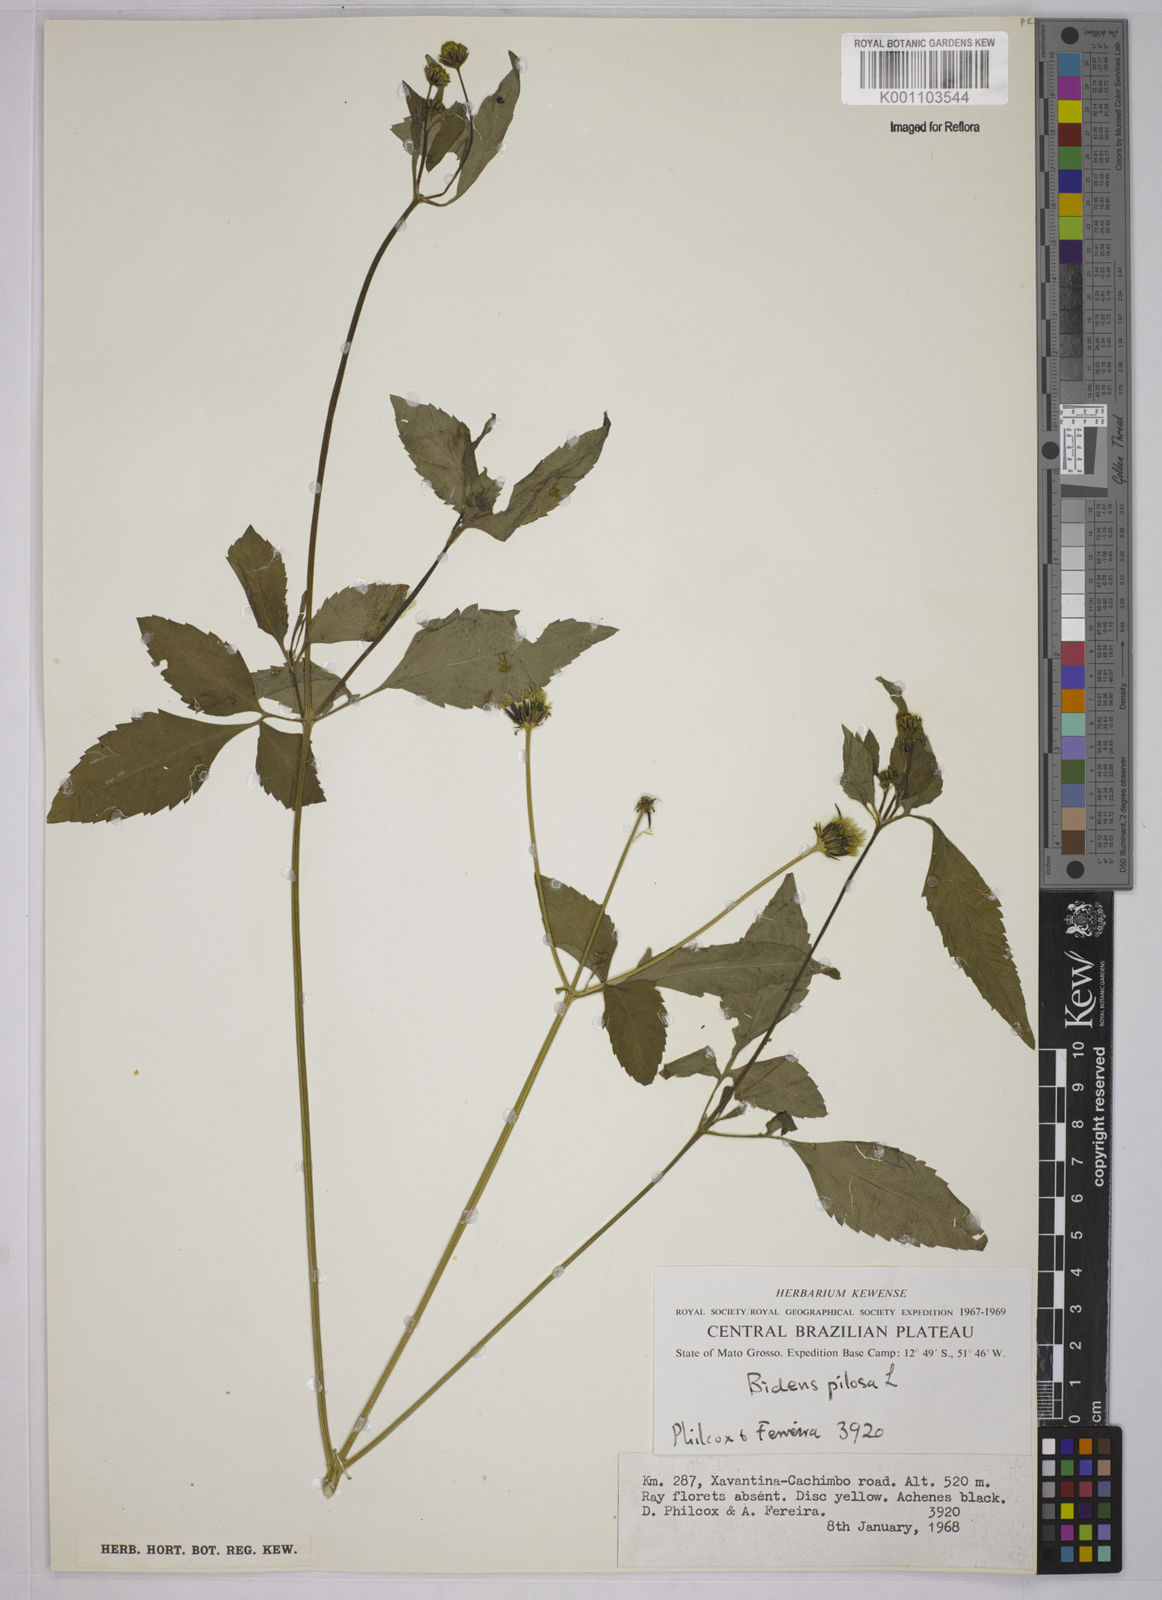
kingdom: Plantae
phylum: Tracheophyta
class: Magnoliopsida
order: Asterales
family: Asteraceae
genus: Bidens
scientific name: Bidens pilosa
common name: Black-jack
